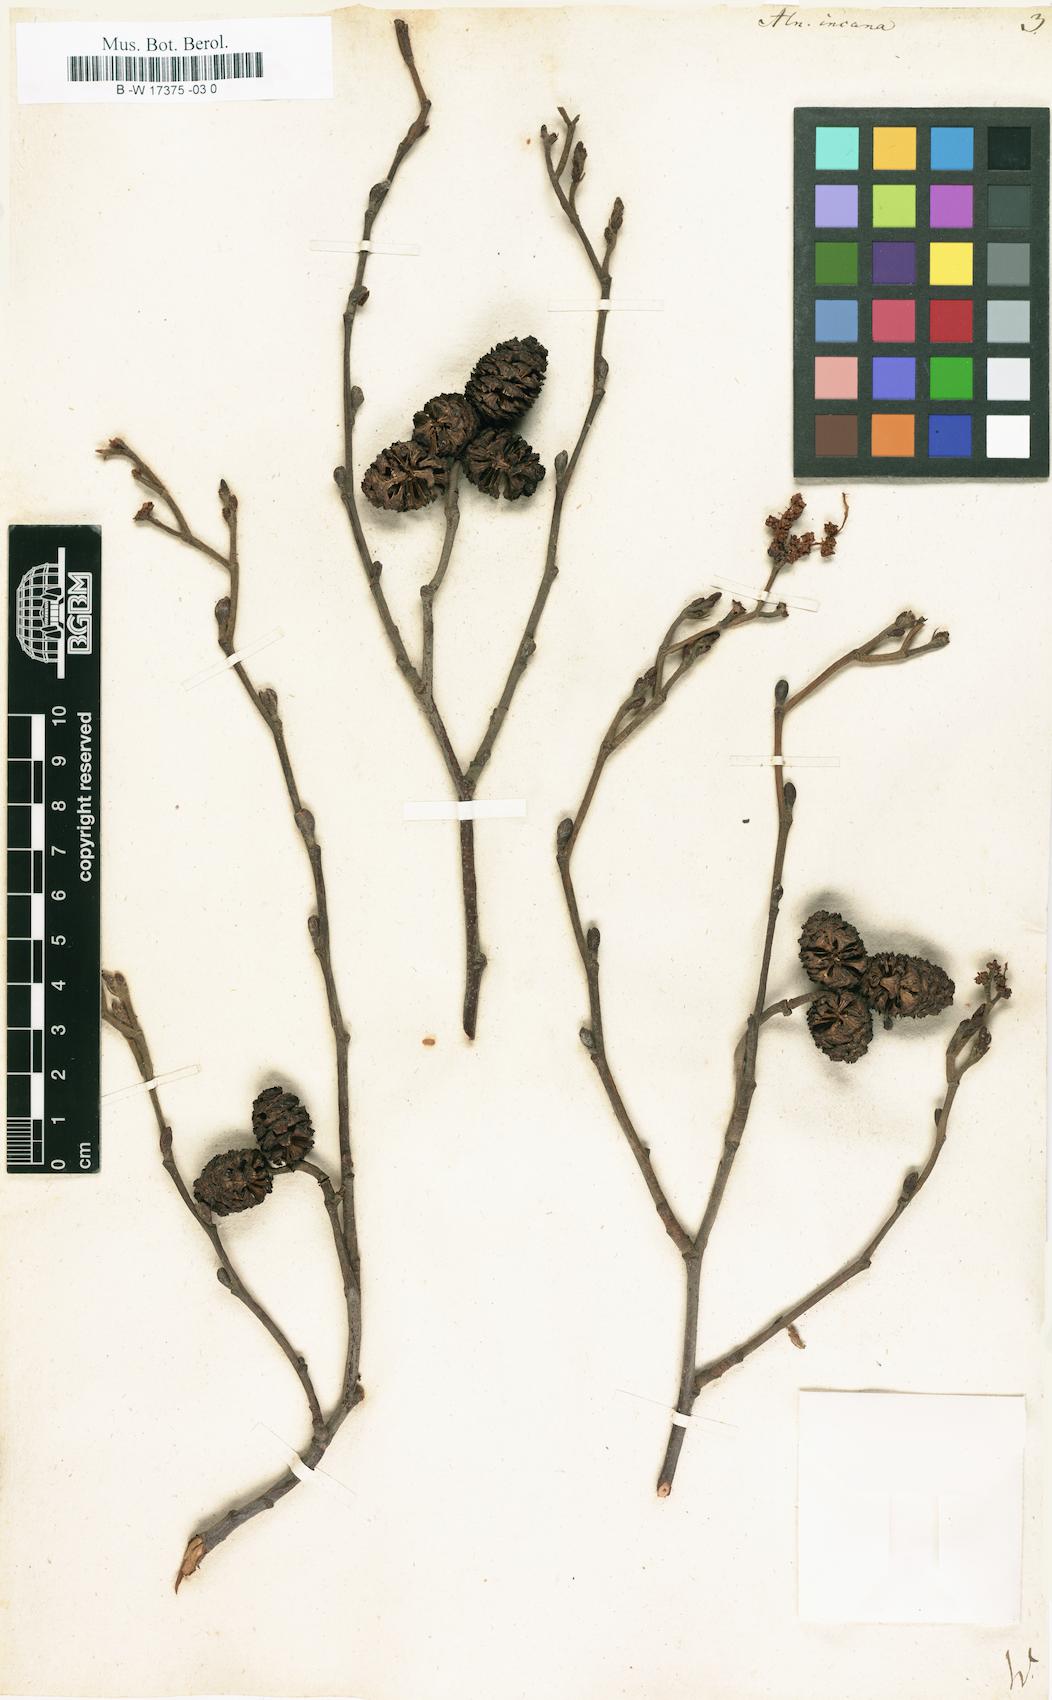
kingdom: Plantae
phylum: Tracheophyta
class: Magnoliopsida
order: Fagales
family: Betulaceae
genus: Alnus
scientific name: Alnus incana
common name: Grey alder
